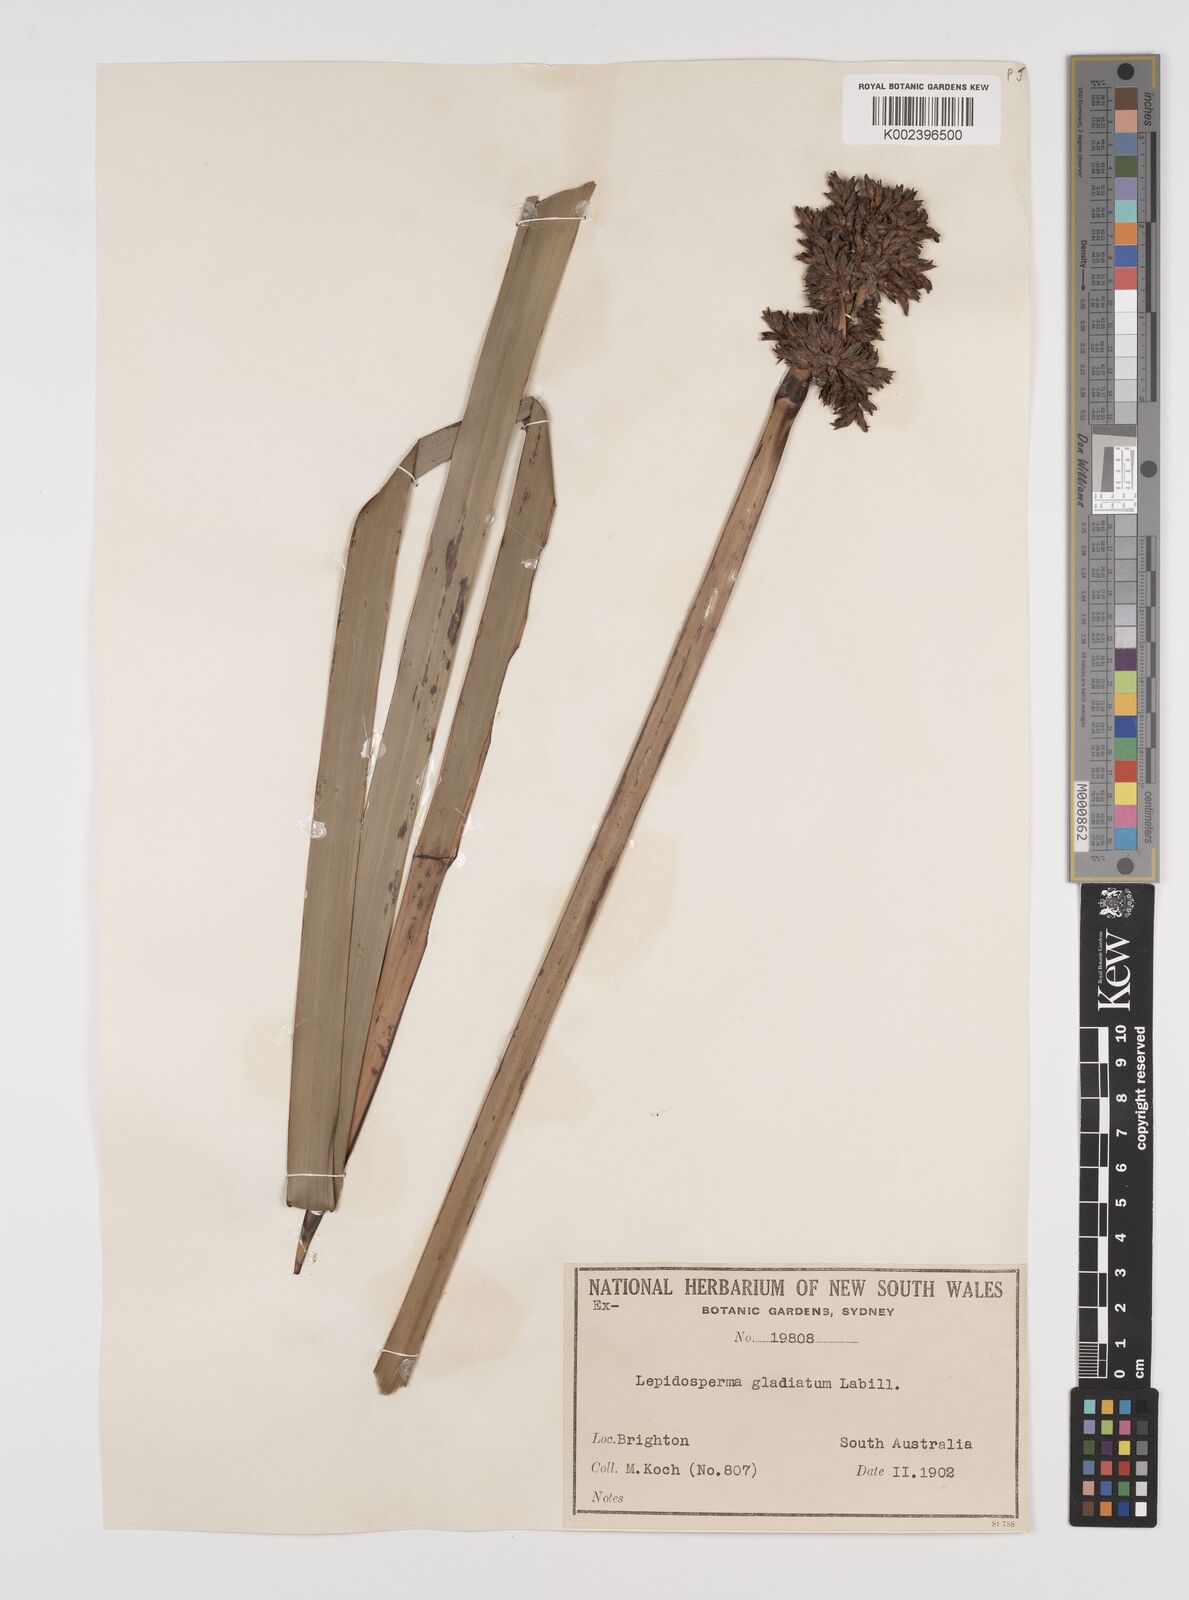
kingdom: Plantae
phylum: Tracheophyta
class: Liliopsida
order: Poales
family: Cyperaceae
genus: Lepidosperma
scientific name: Lepidosperma gladiatum
